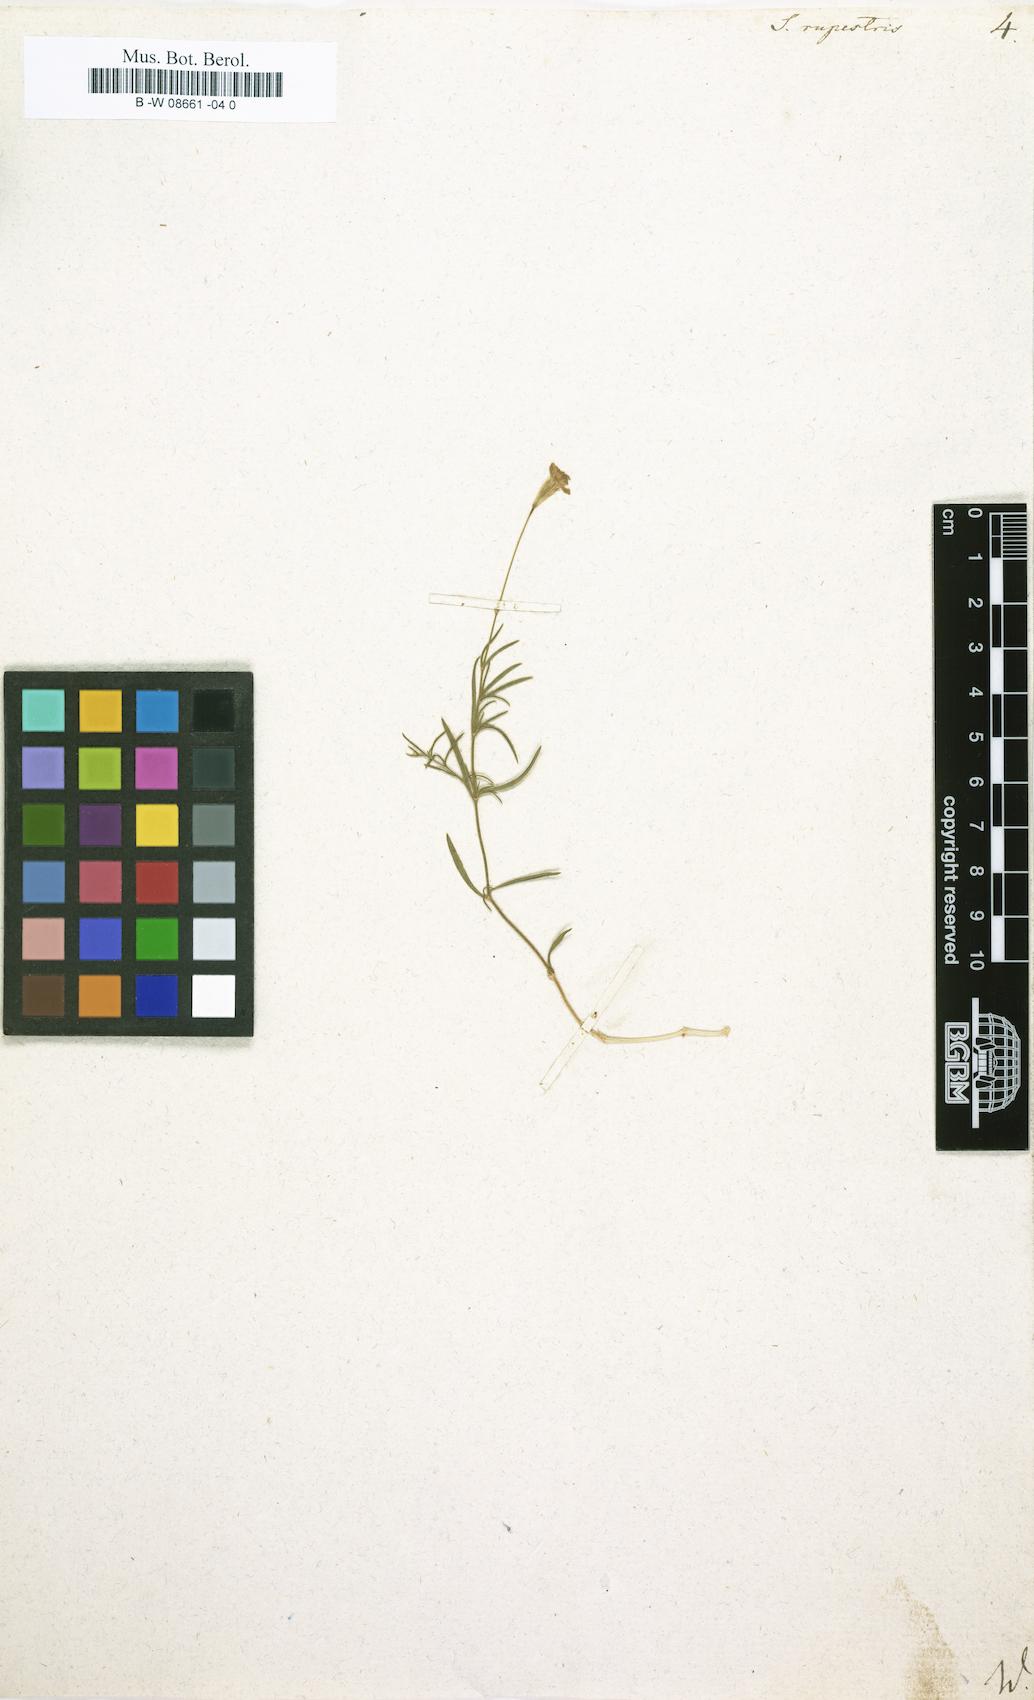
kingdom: Plantae
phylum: Tracheophyta
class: Magnoliopsida
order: Caryophyllales
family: Caryophyllaceae
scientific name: Caryophyllaceae
